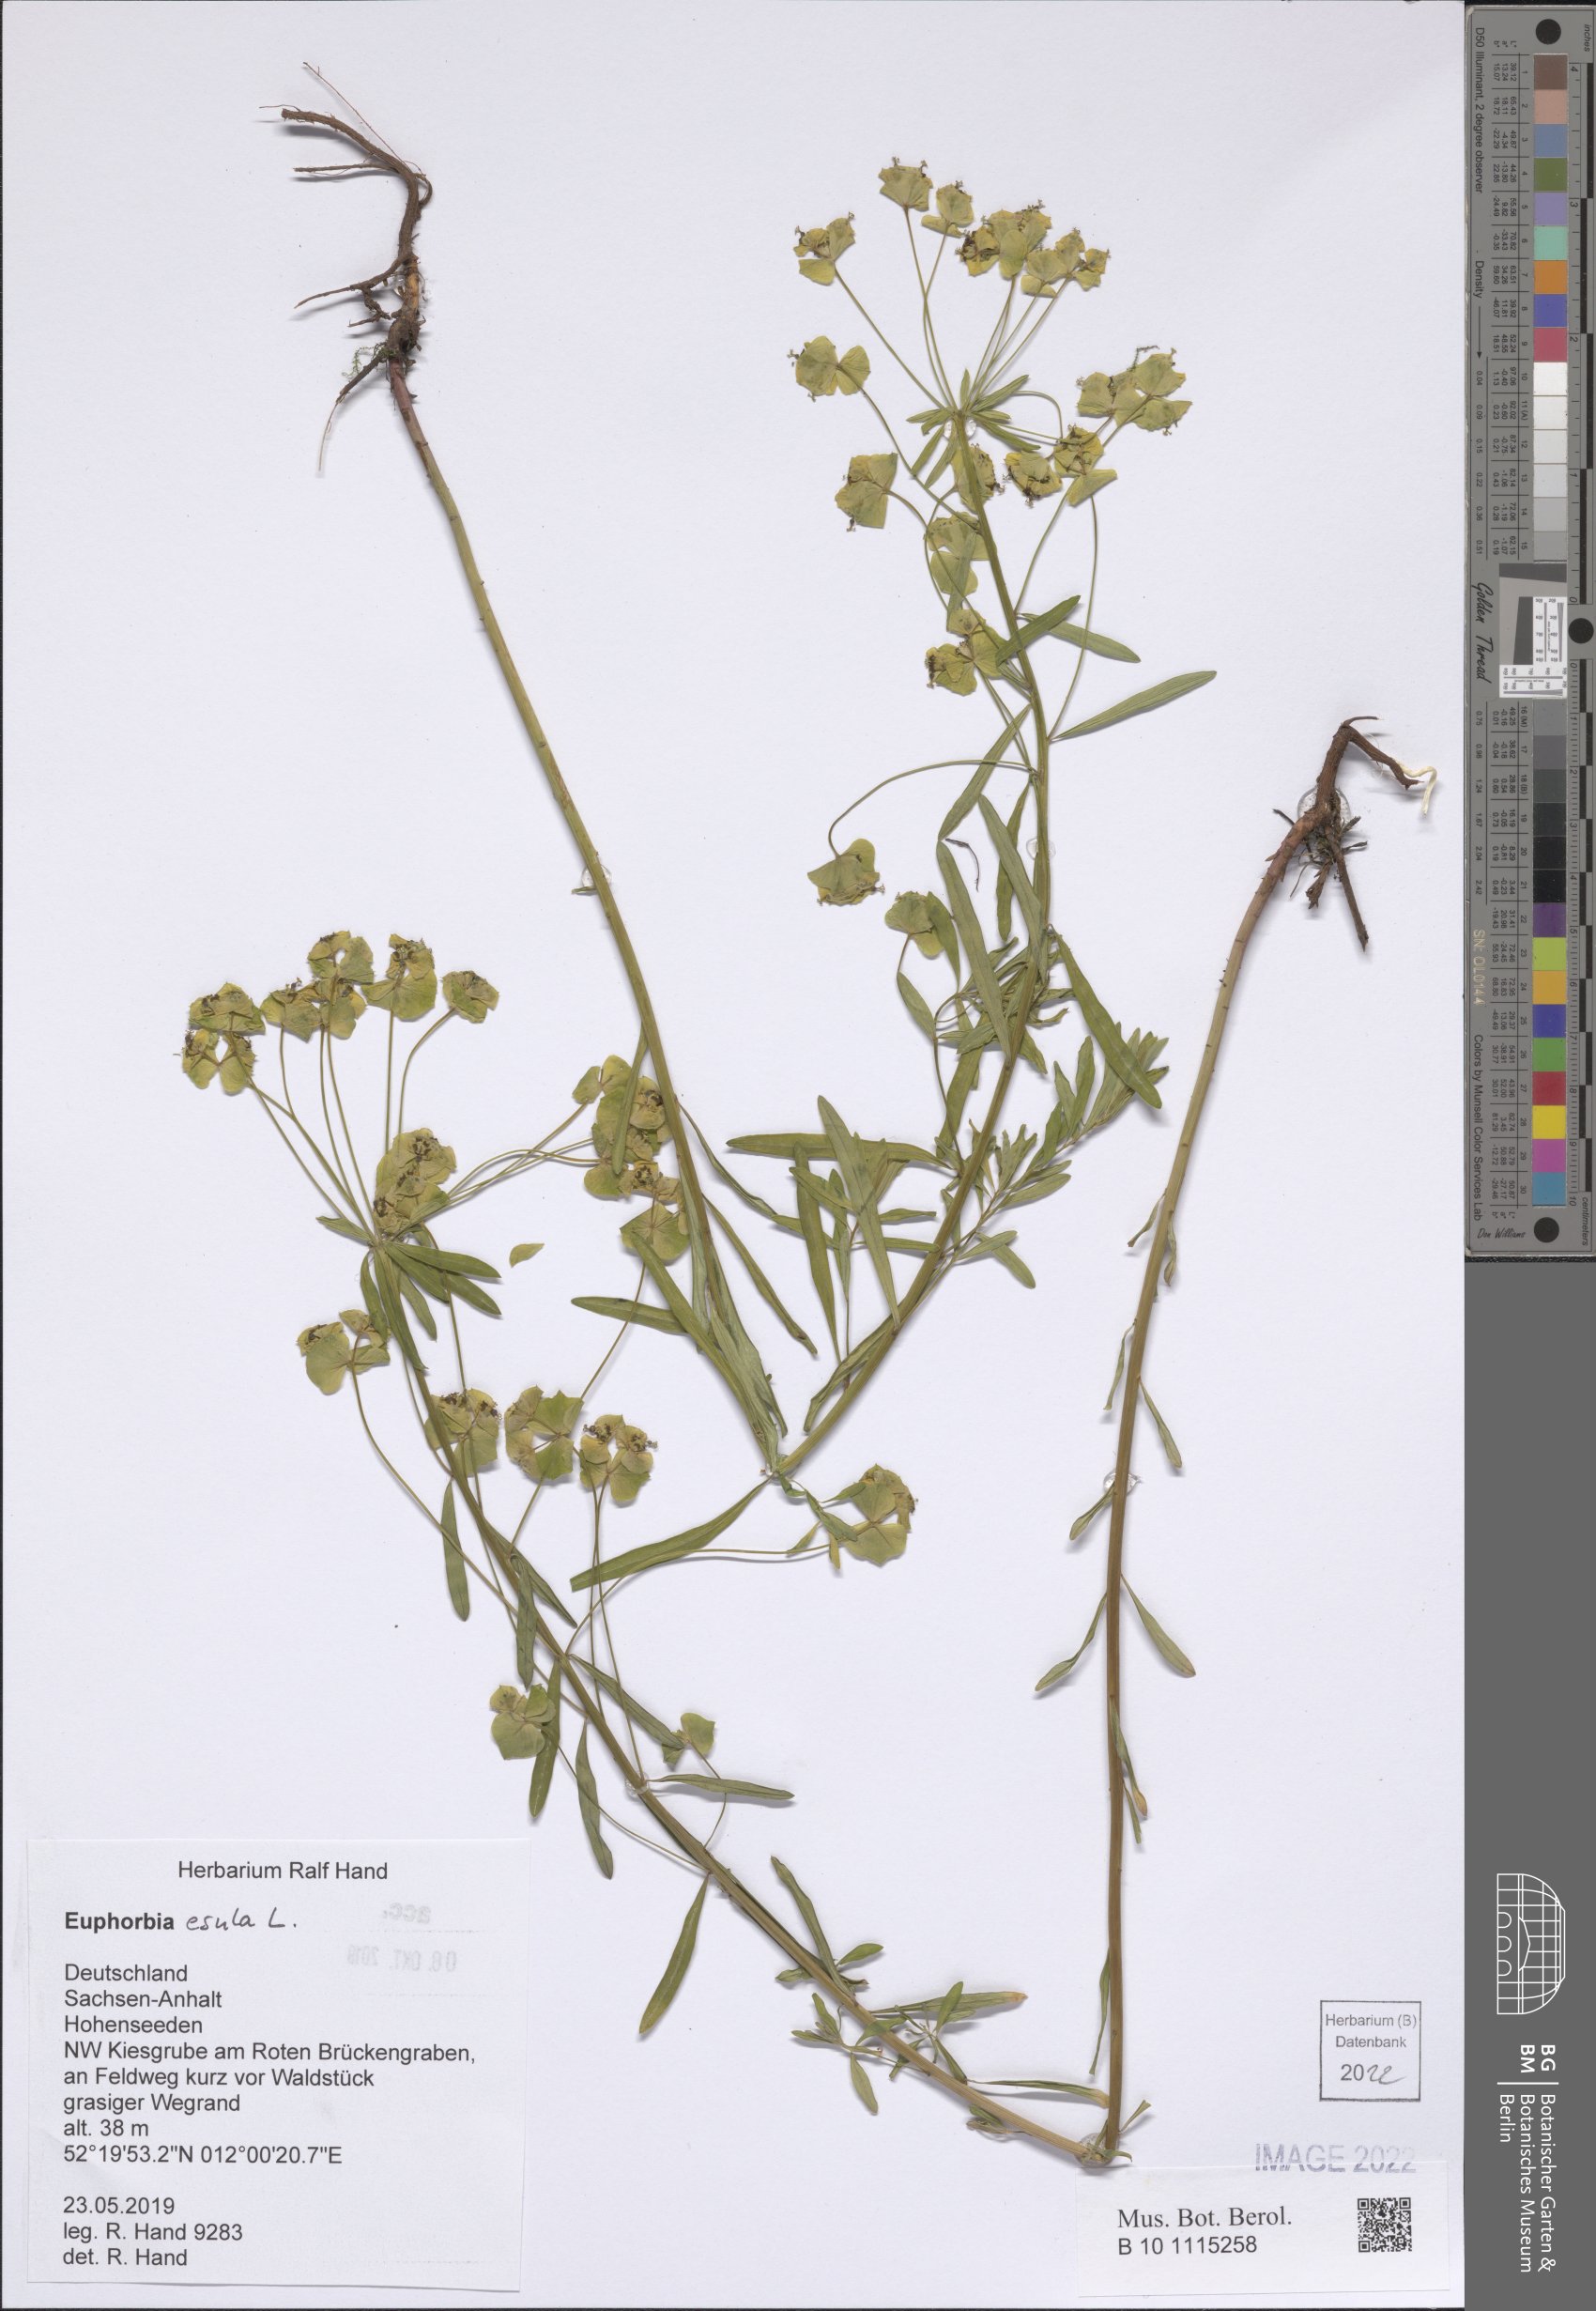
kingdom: Plantae
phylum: Tracheophyta
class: Magnoliopsida
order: Malpighiales
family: Euphorbiaceae
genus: Euphorbia
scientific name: Euphorbia esula
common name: Leafy spurge
